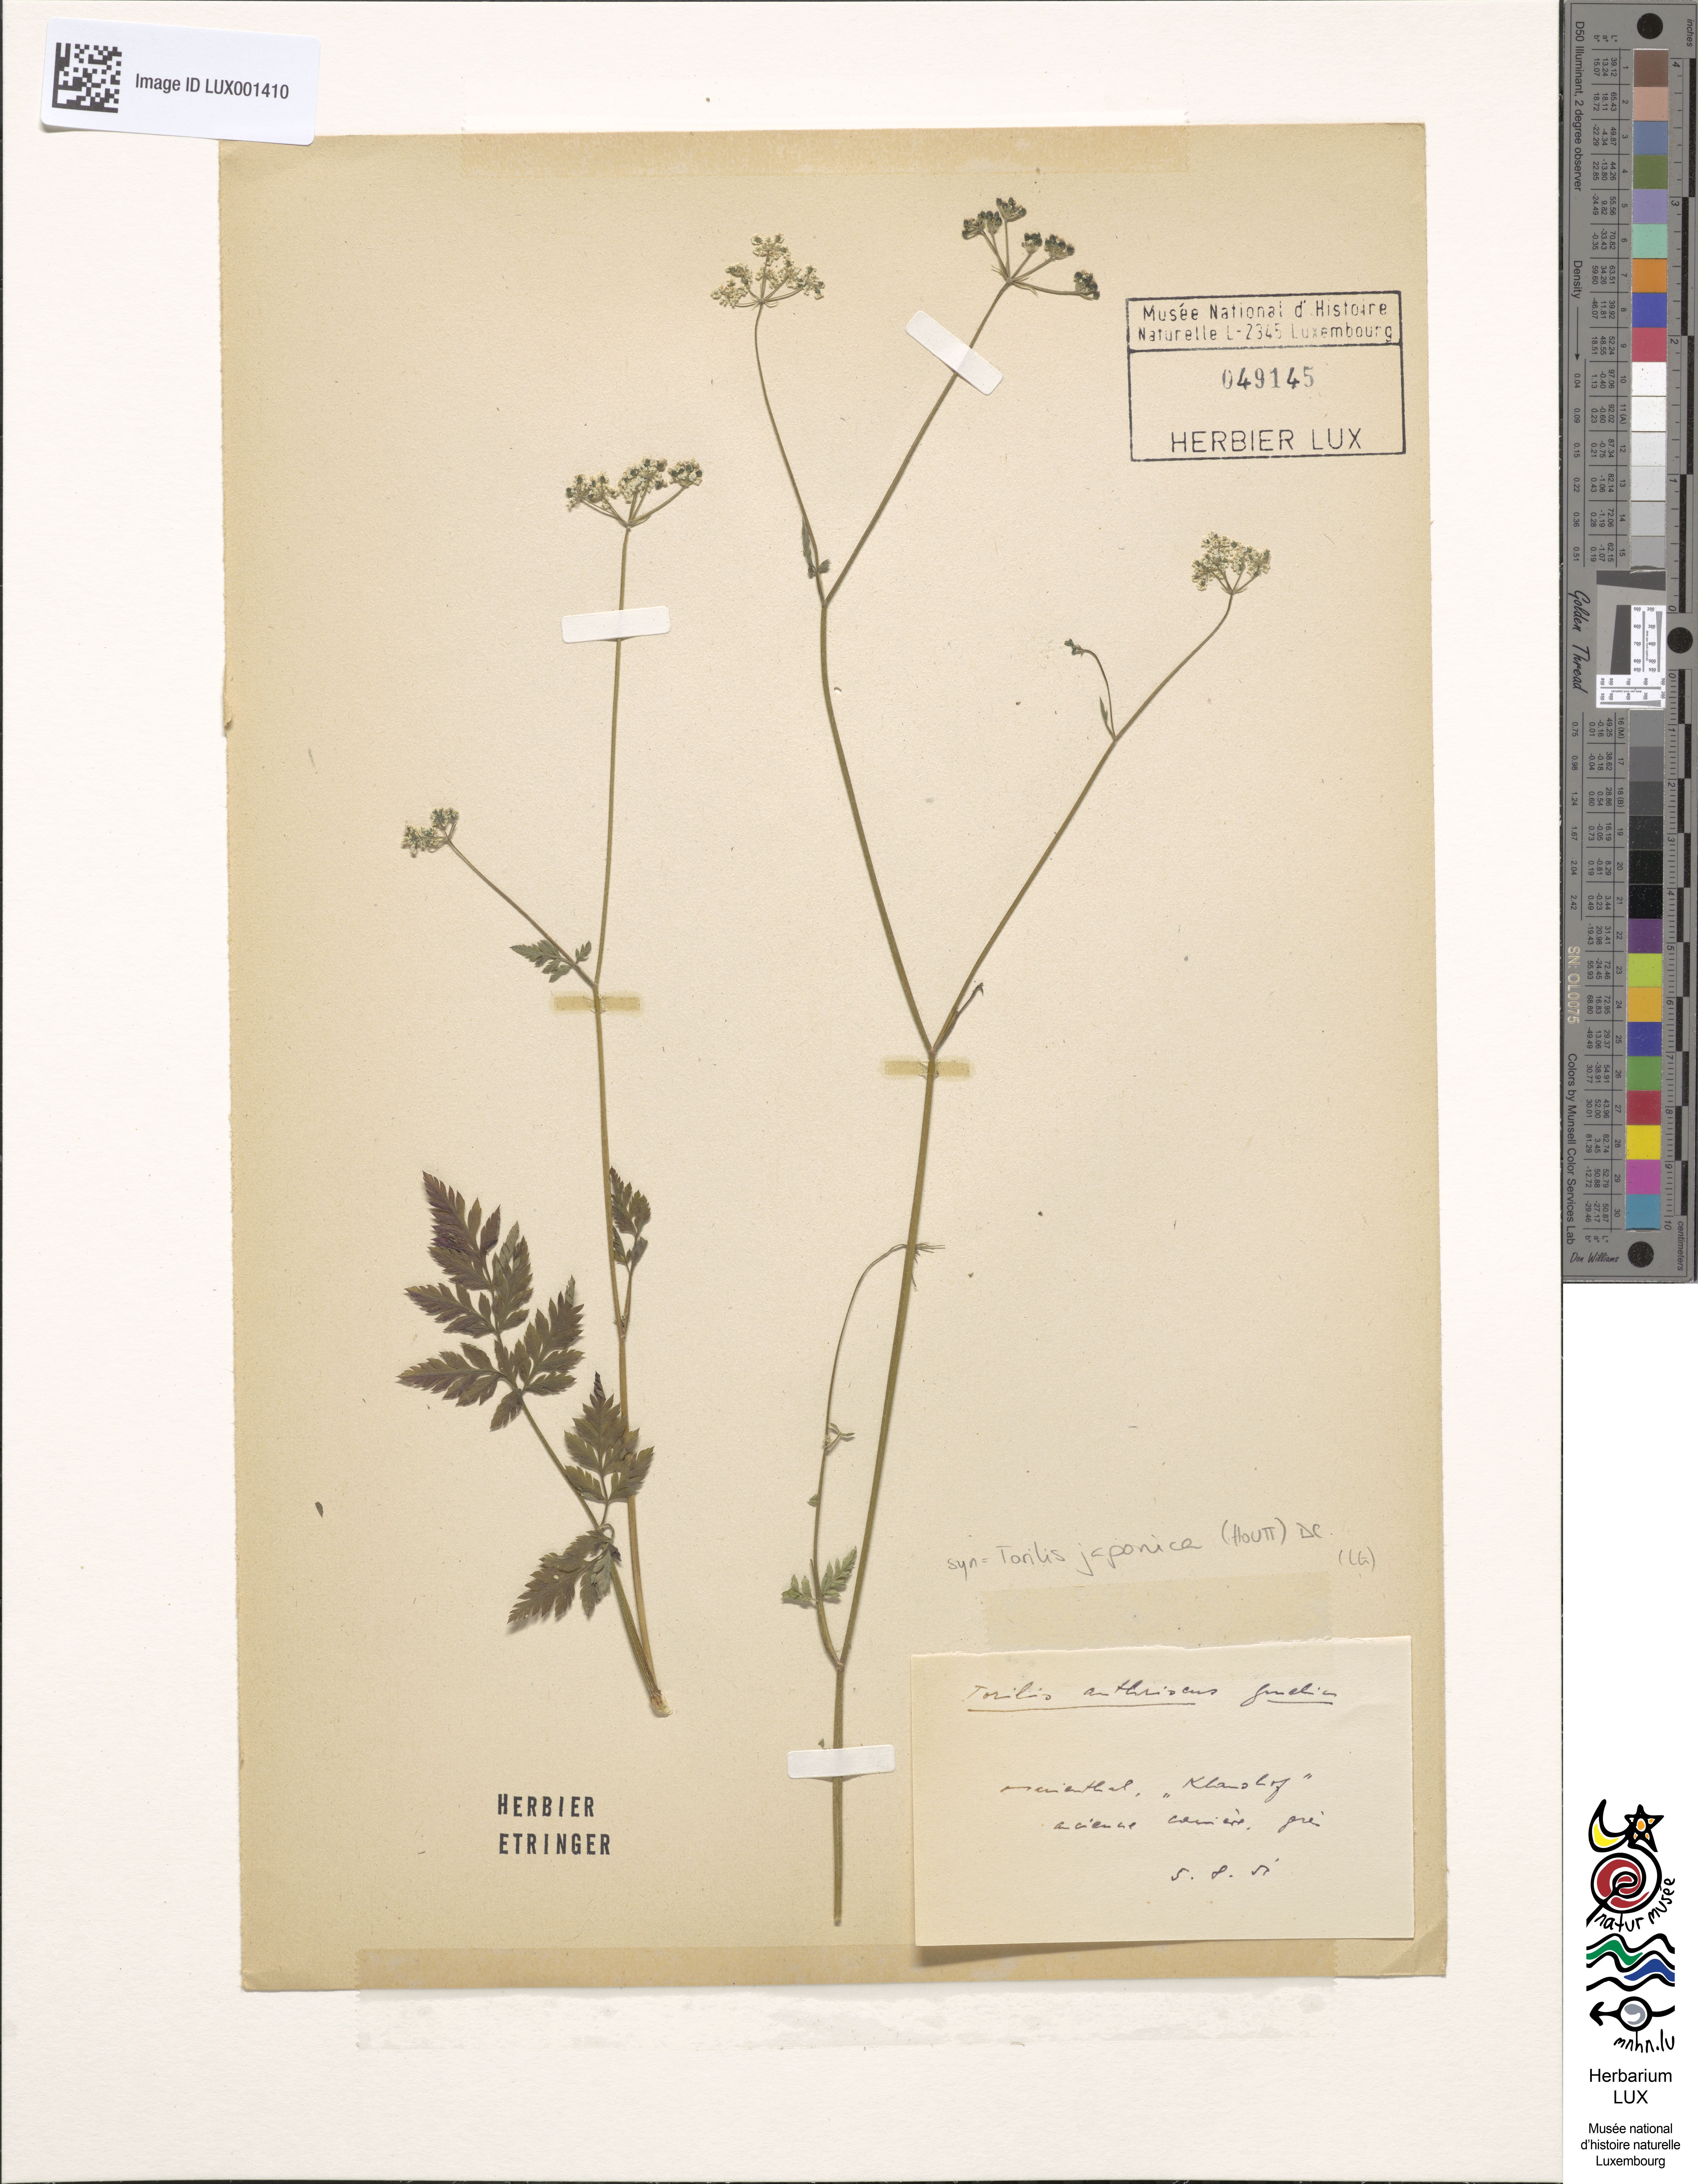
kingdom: Plantae
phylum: Tracheophyta
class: Magnoliopsida
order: Apiales
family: Apiaceae
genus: Torilis
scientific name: Torilis japonica
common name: Upright hedge-parsley
